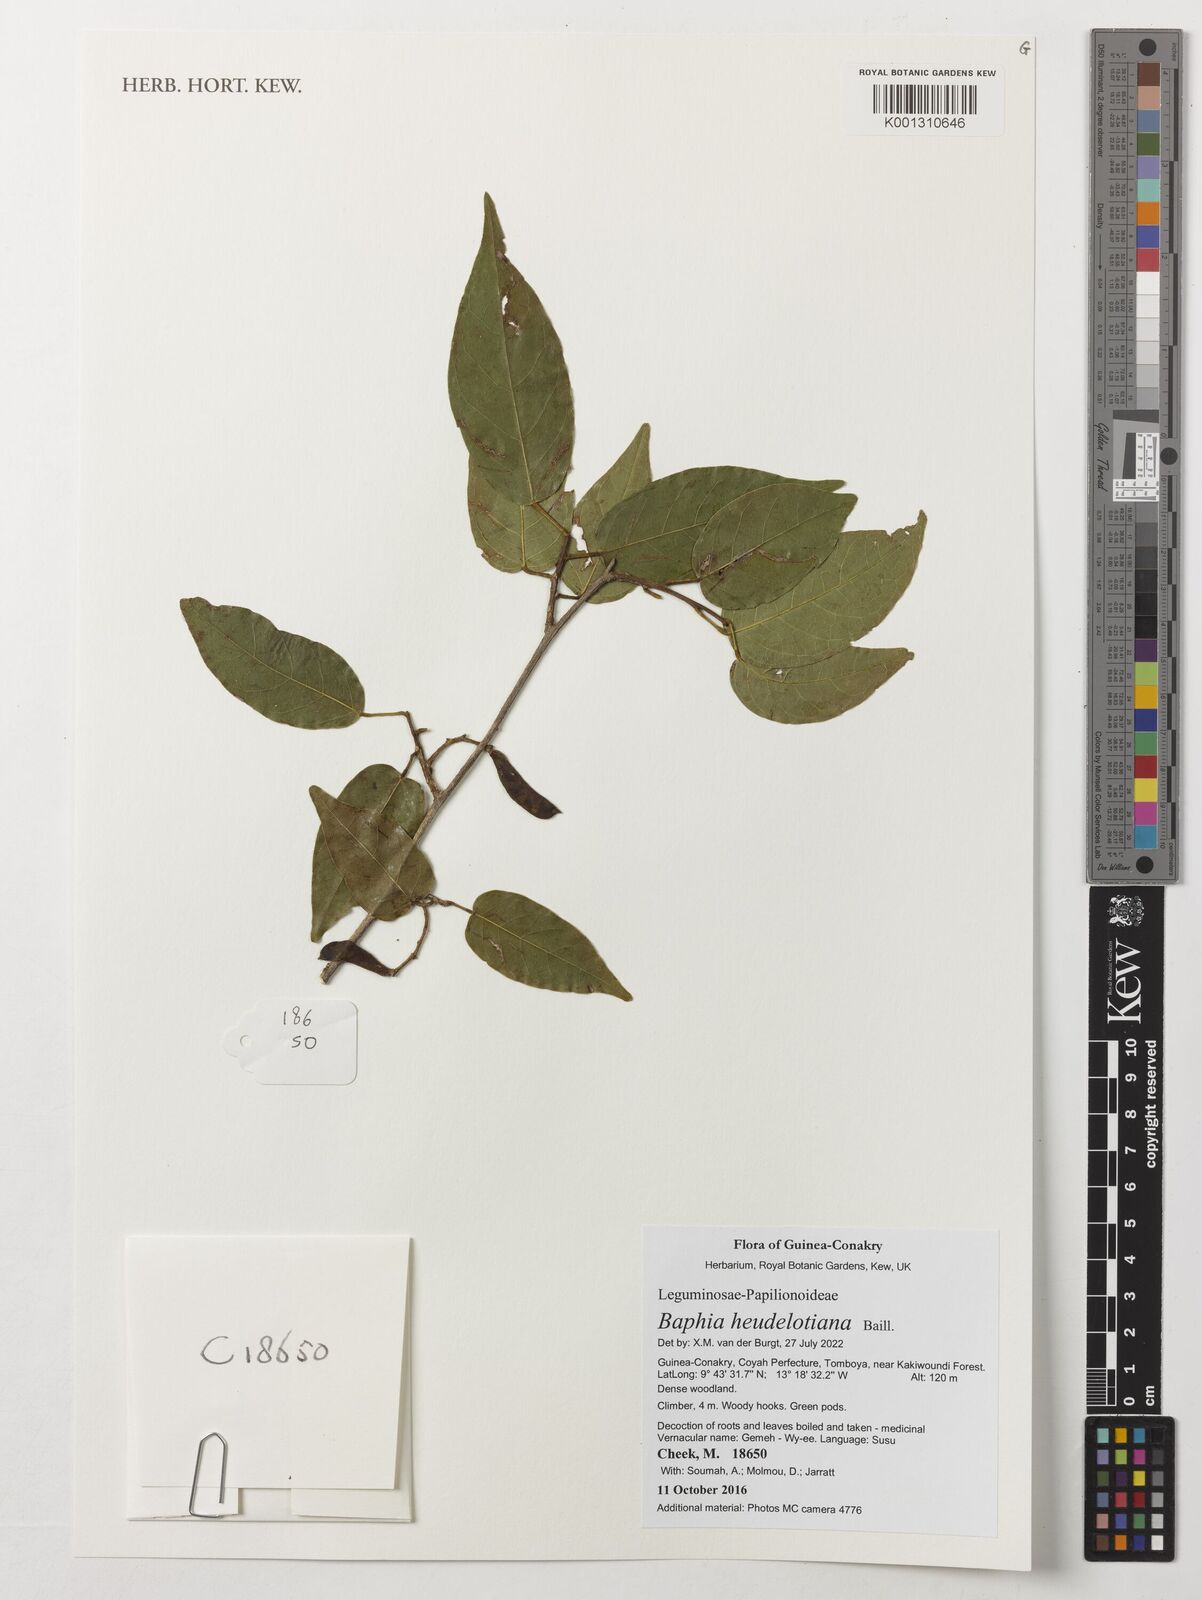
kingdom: Plantae
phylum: Tracheophyta
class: Magnoliopsida
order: Fabales
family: Fabaceae
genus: Baphia
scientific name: Baphia heudelotiana
